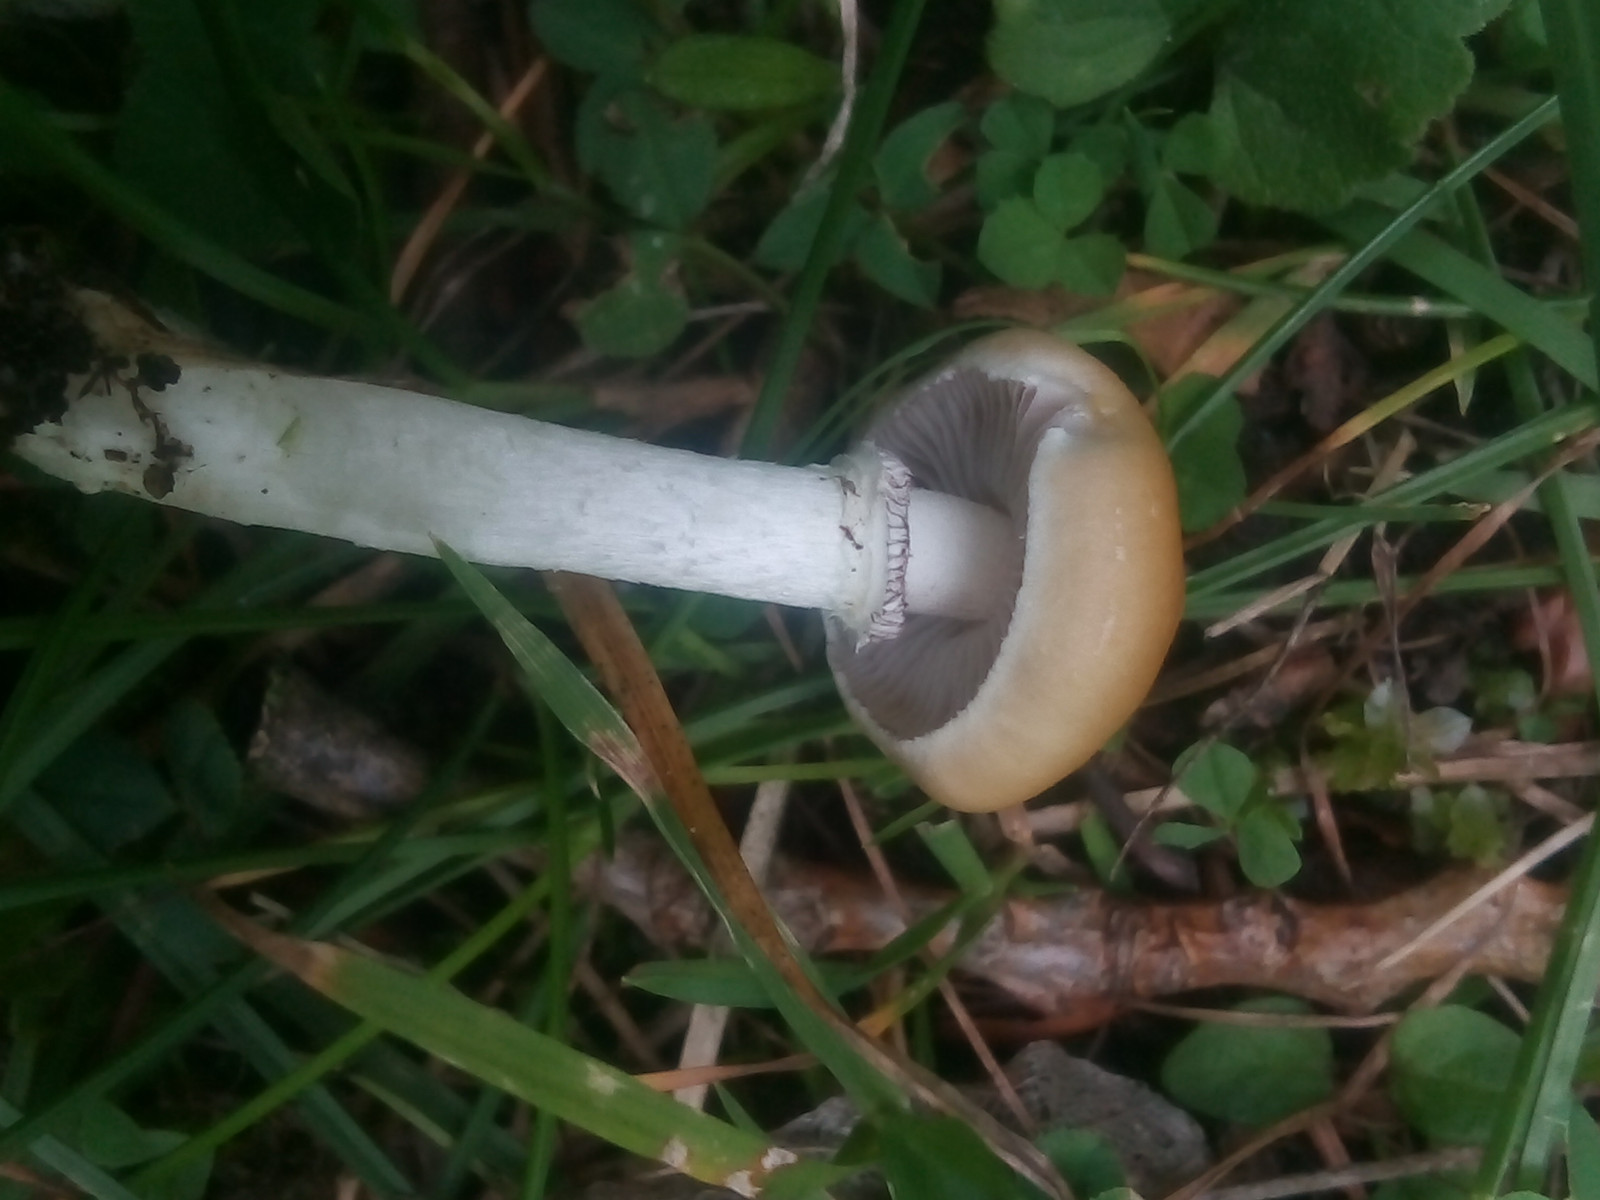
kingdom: Fungi
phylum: Basidiomycota
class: Agaricomycetes
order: Agaricales
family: Hymenogastraceae
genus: Psilocybe
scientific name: Psilocybe coronilla
